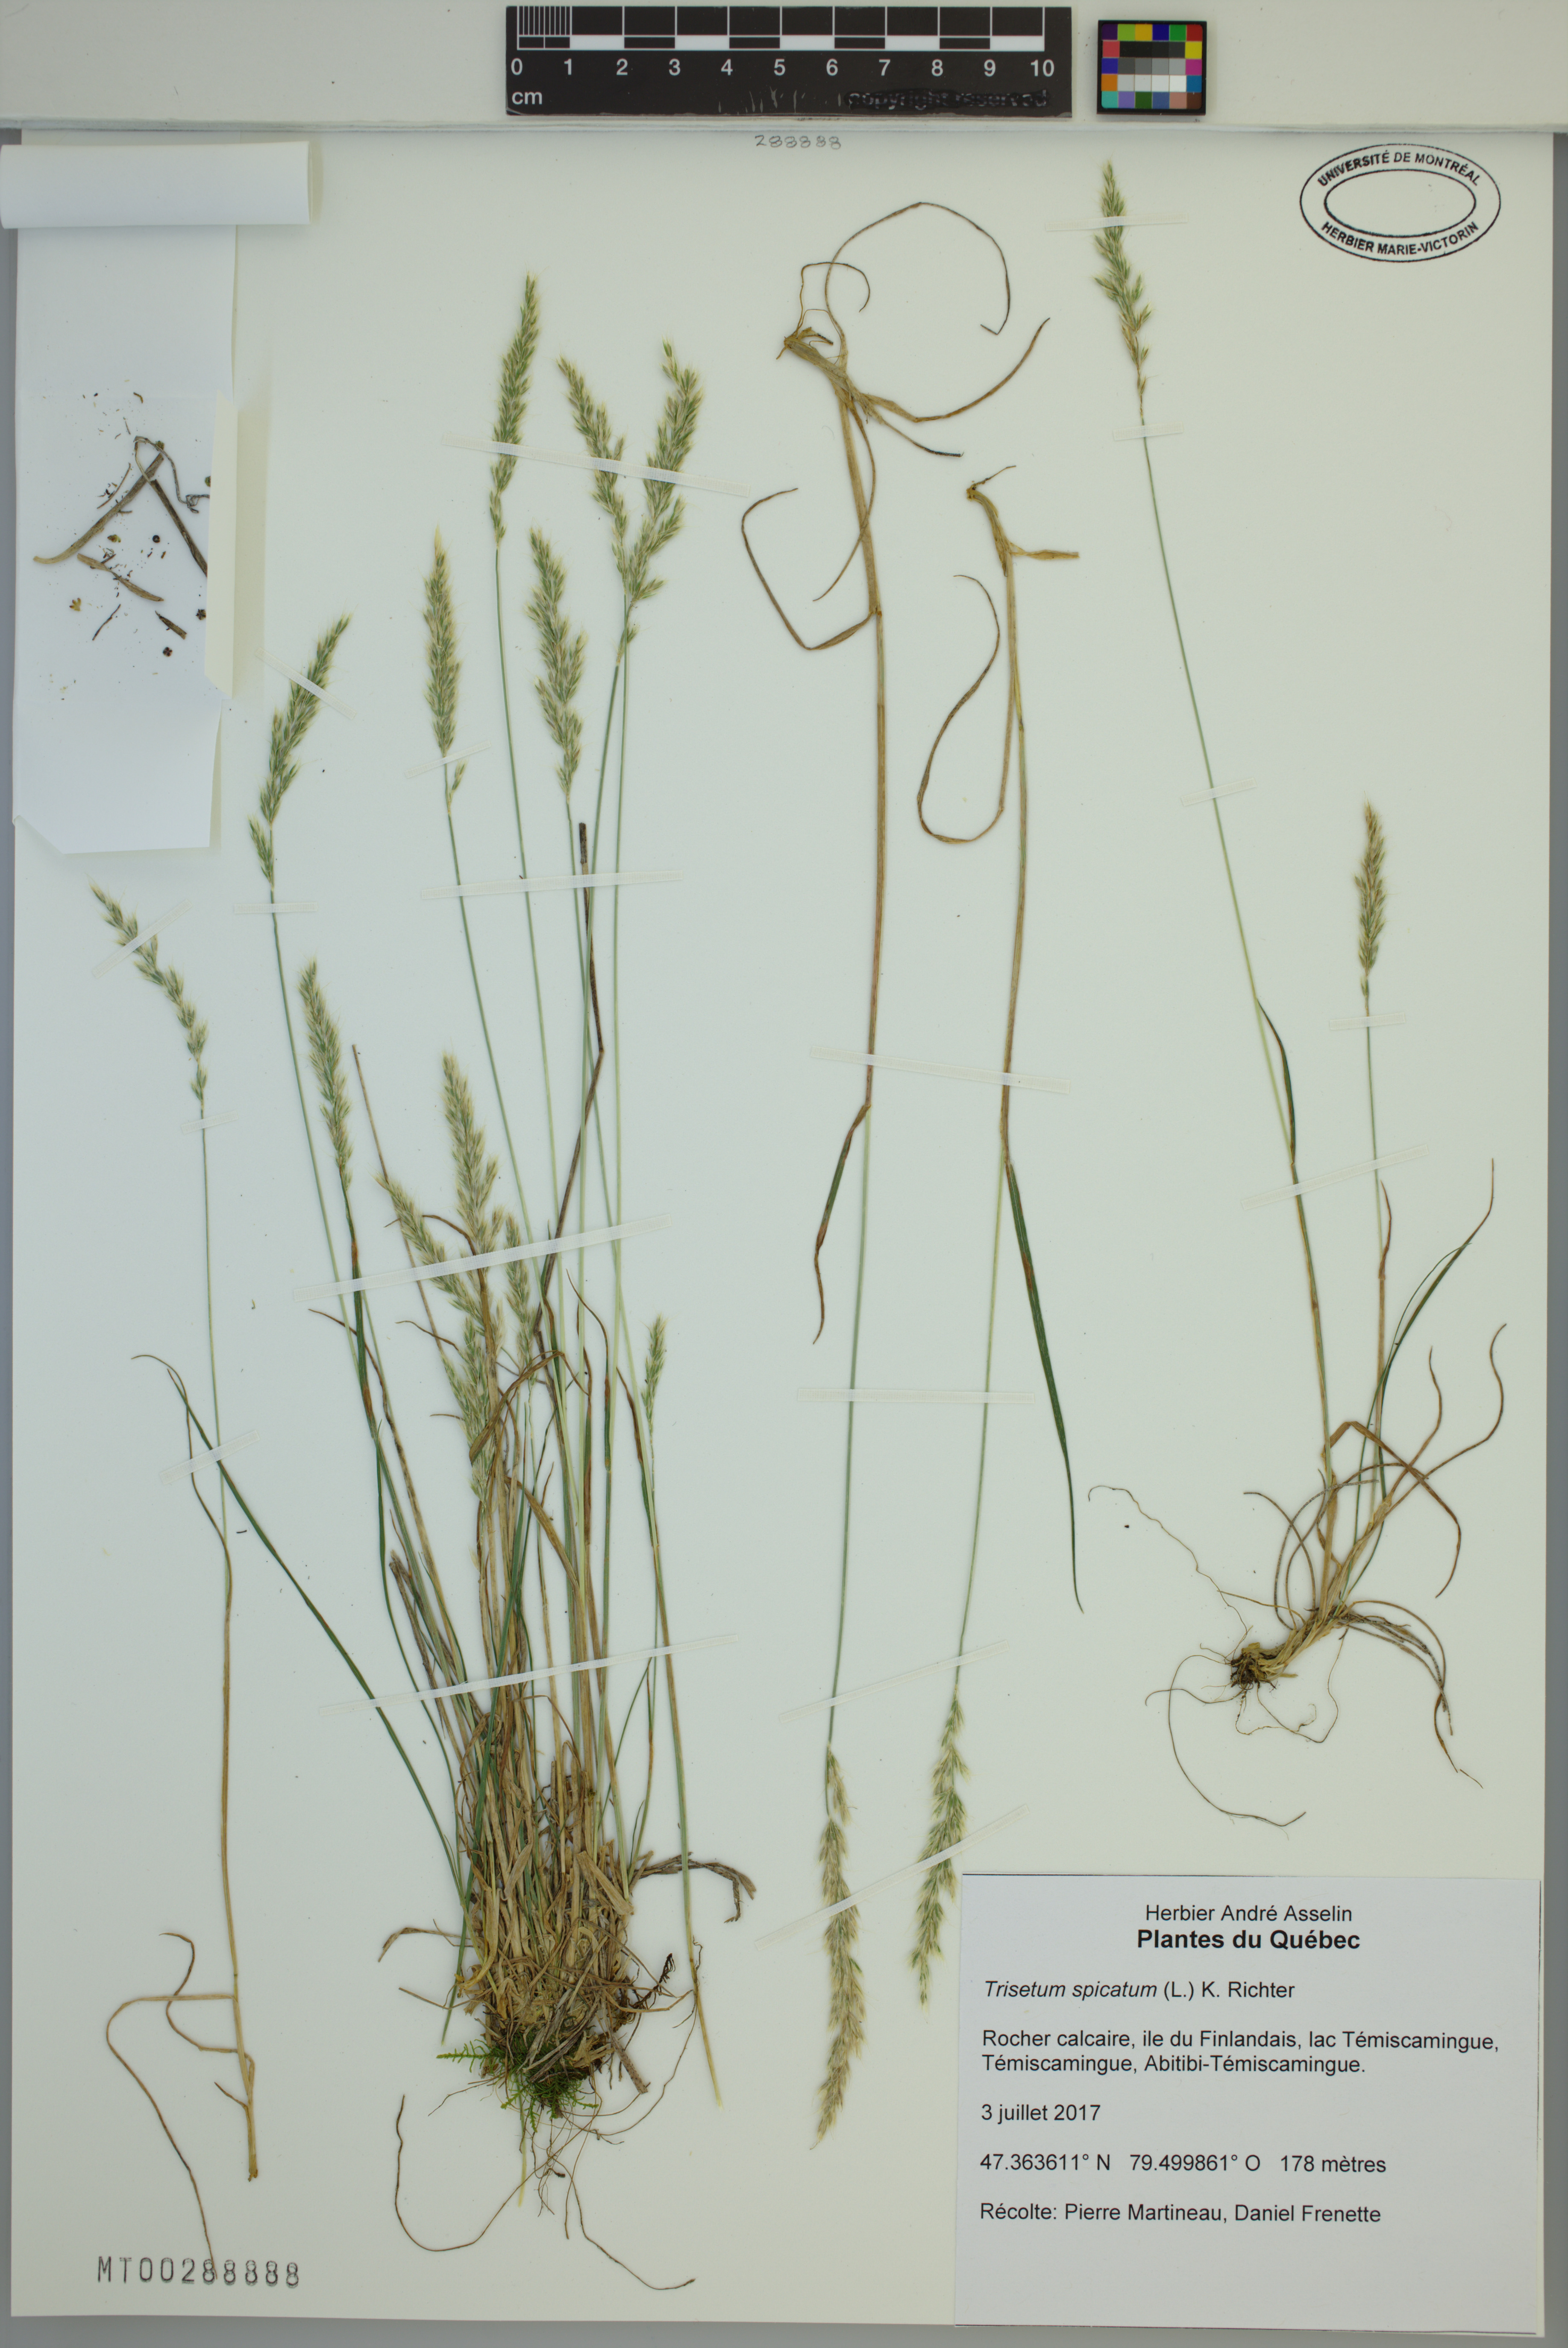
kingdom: Plantae
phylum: Tracheophyta
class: Liliopsida
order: Poales
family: Poaceae
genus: Koeleria
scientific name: Koeleria spicata
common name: Mountain trisetum
